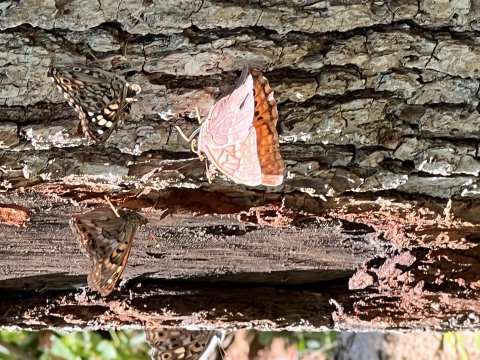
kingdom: Animalia
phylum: Arthropoda
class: Insecta
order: Lepidoptera
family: Nymphalidae
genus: Asterocampa
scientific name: Asterocampa clyton
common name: Tawny Emperor
